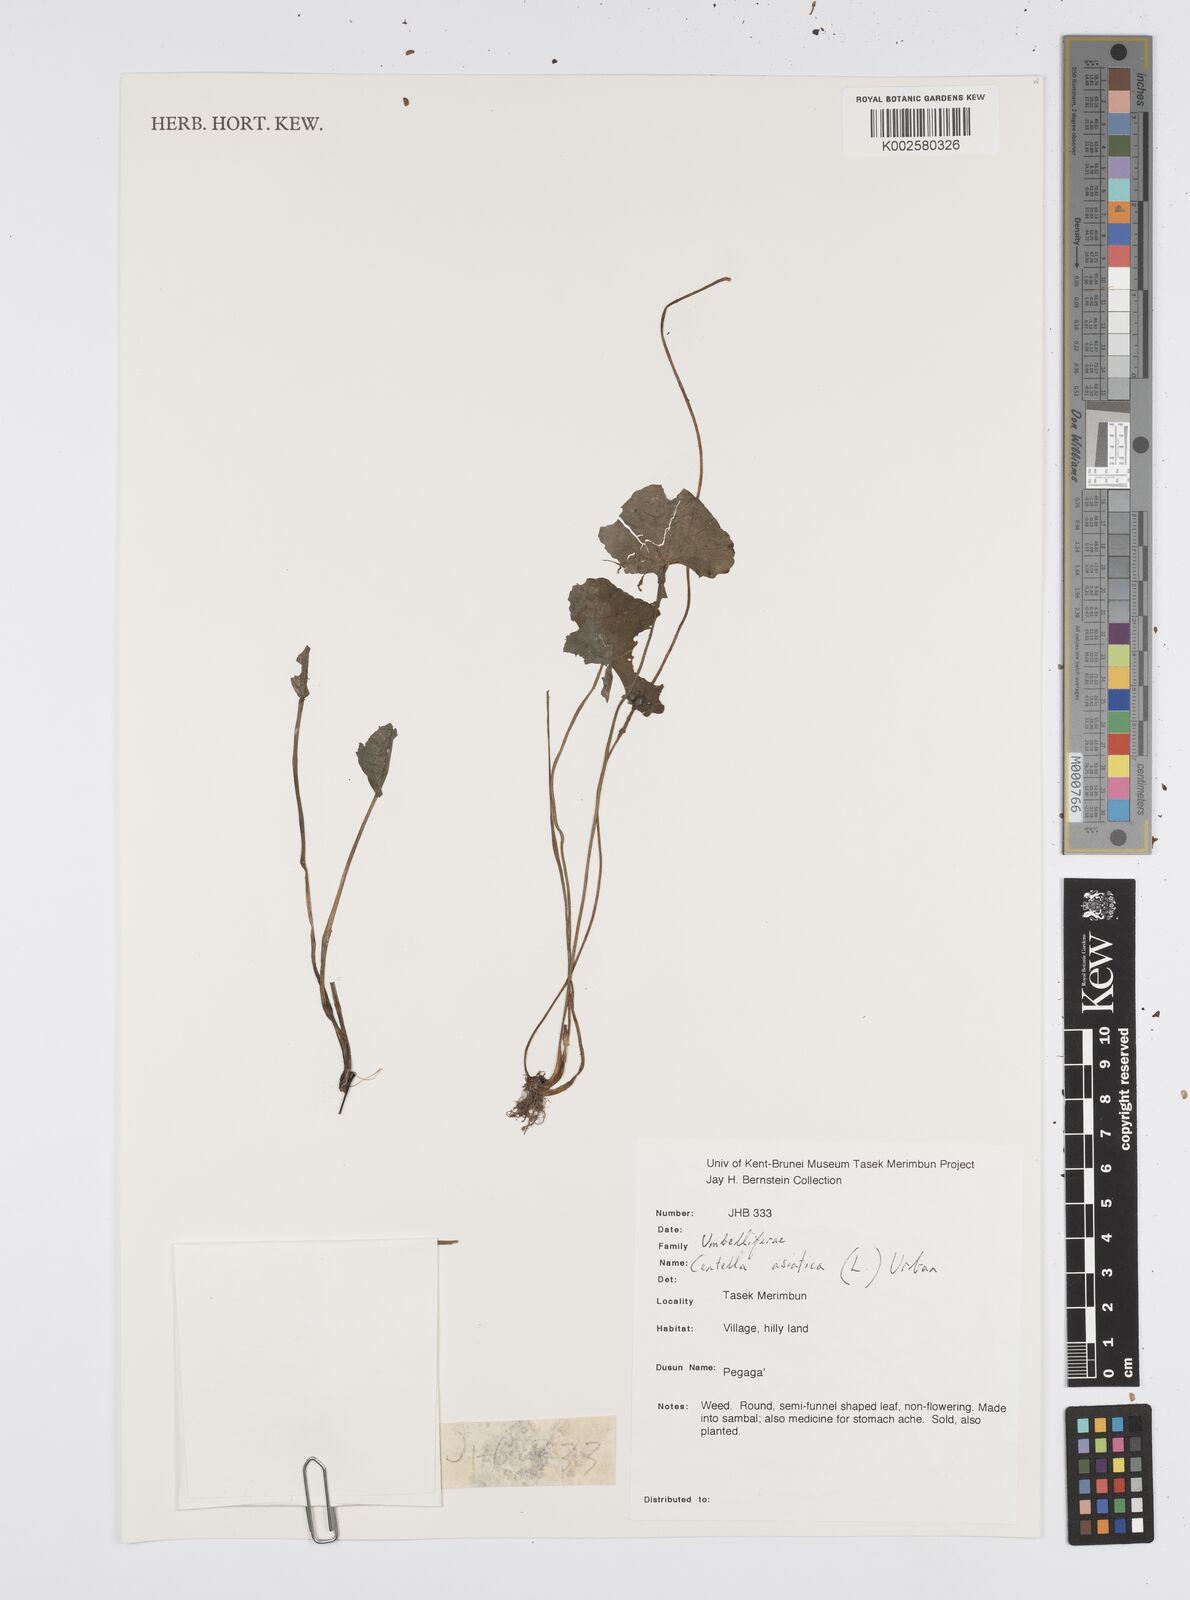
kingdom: Plantae
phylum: Tracheophyta
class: Magnoliopsida
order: Apiales
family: Apiaceae
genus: Centella
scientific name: Centella asiatica
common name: Spadeleaf
